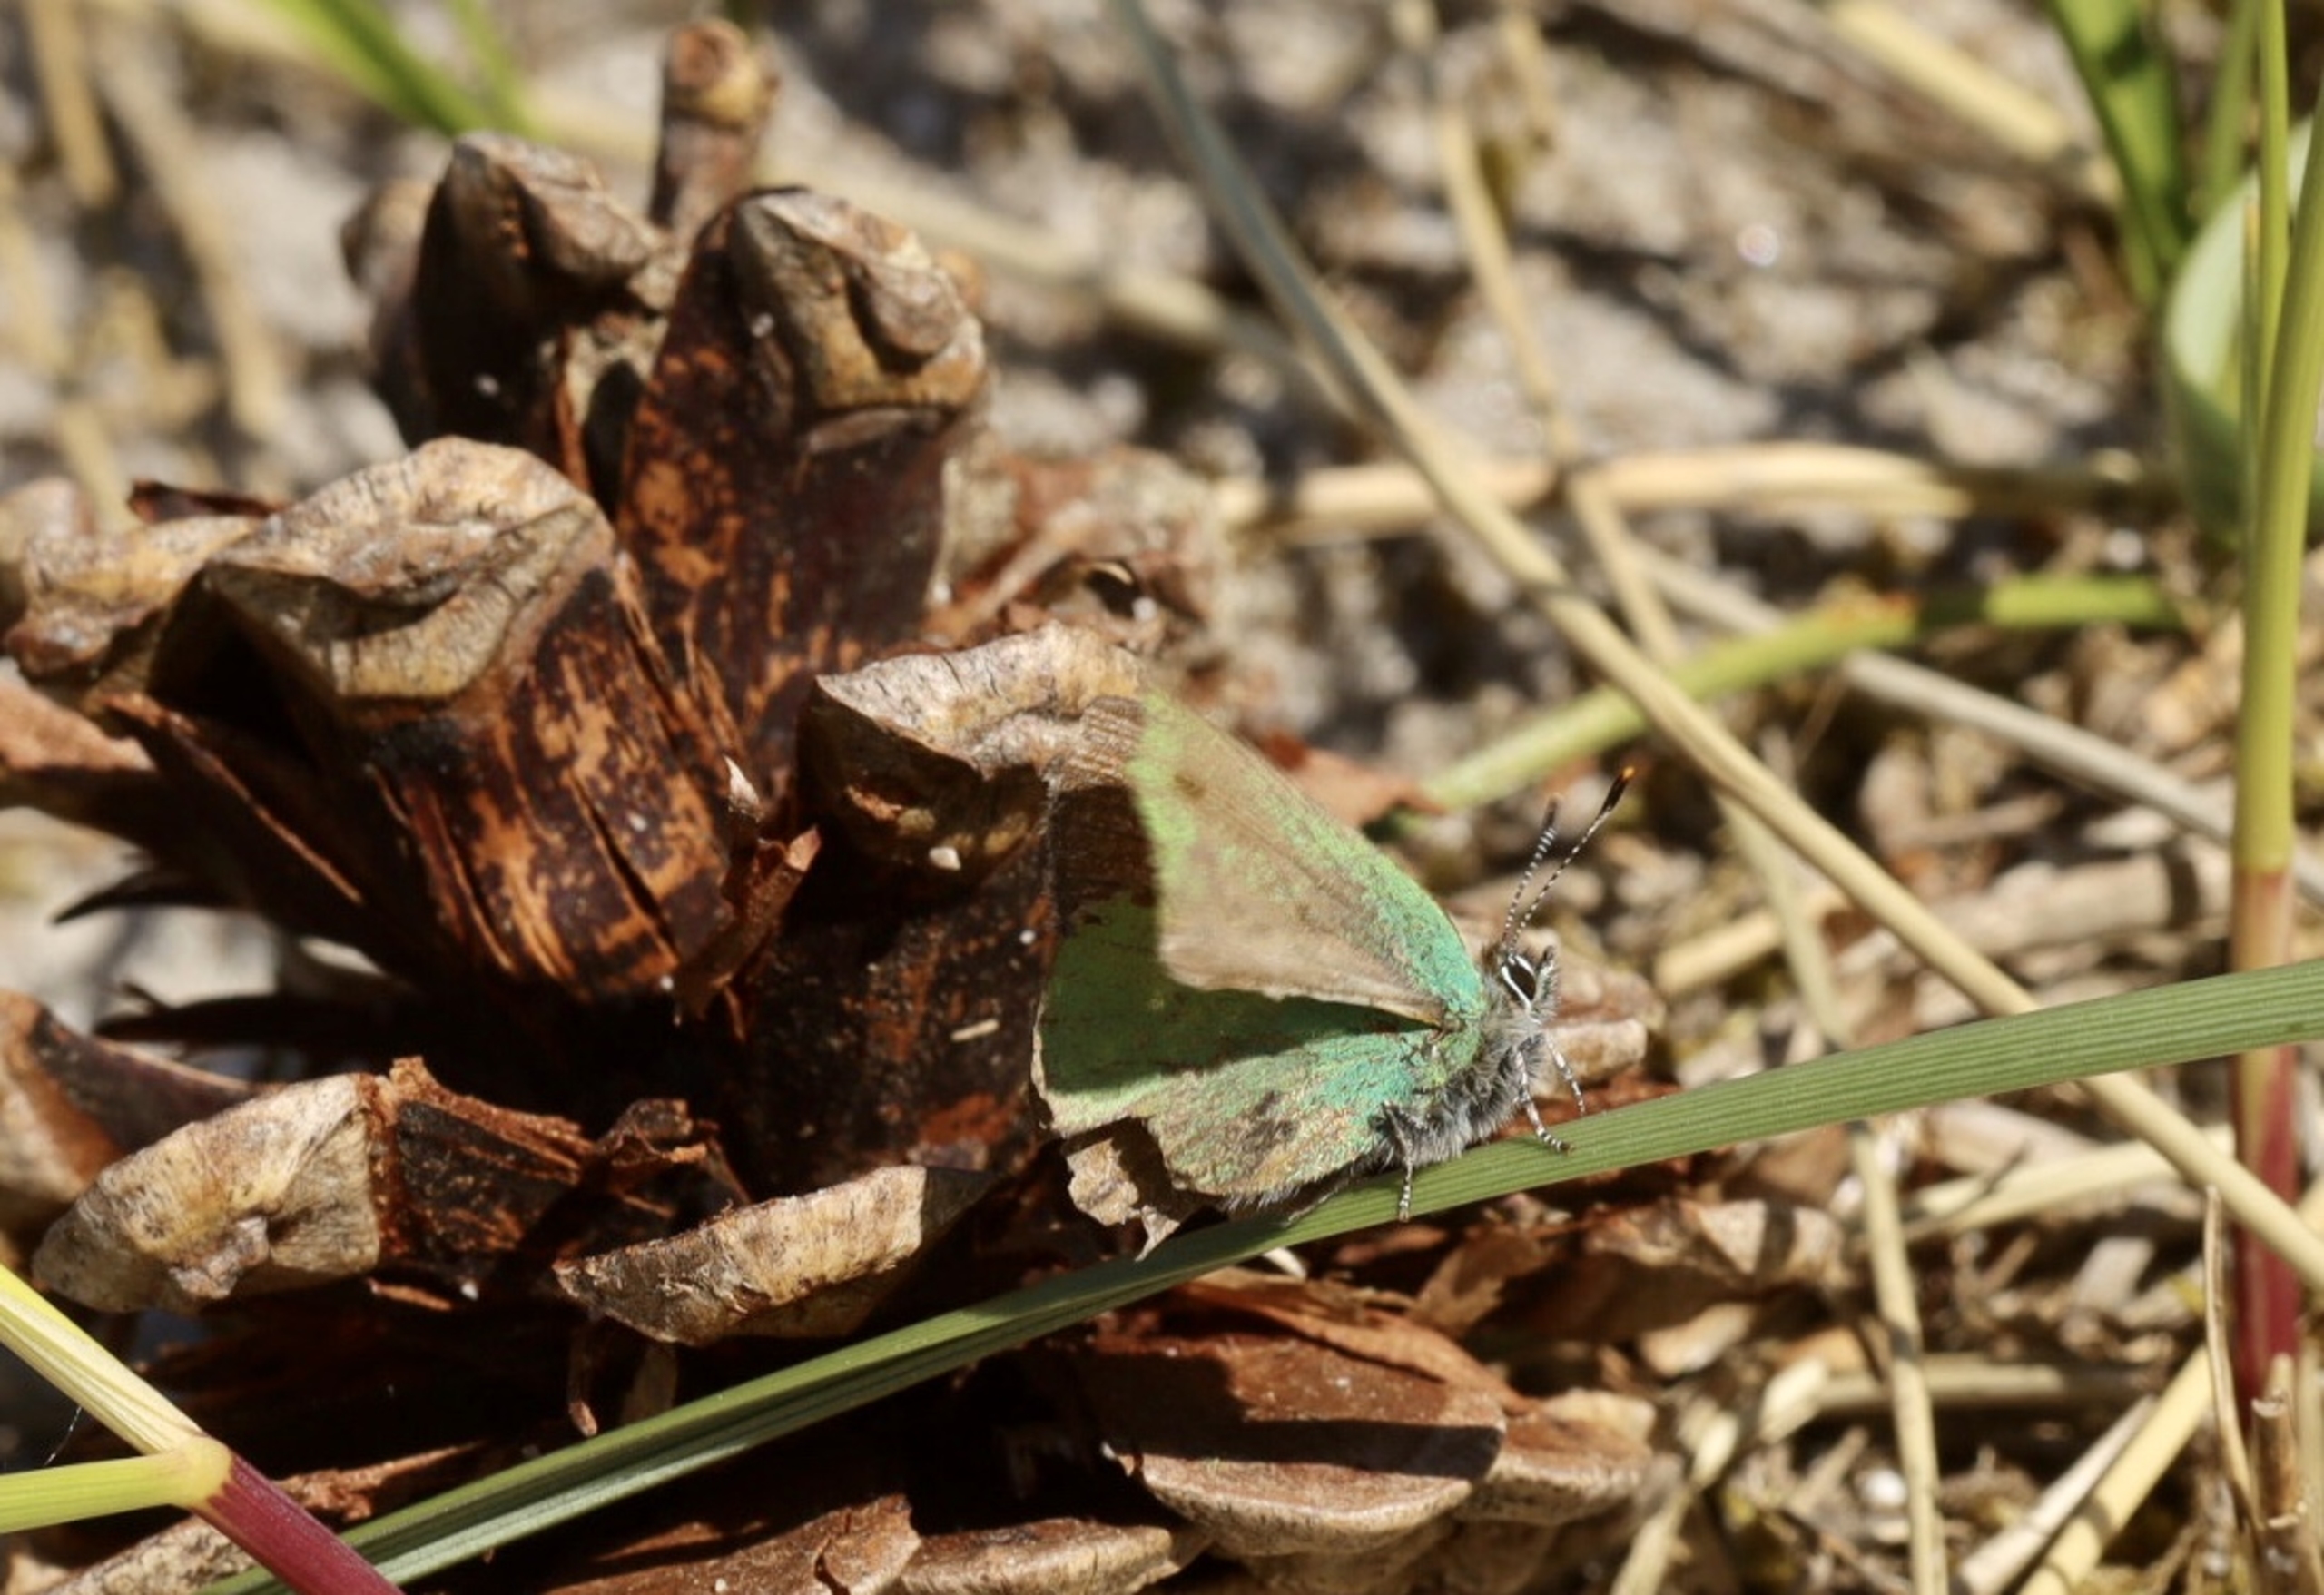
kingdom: Animalia
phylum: Arthropoda
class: Insecta
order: Lepidoptera
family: Lycaenidae
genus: Callophrys
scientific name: Callophrys rubi
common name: Grøn busksommerfugl
